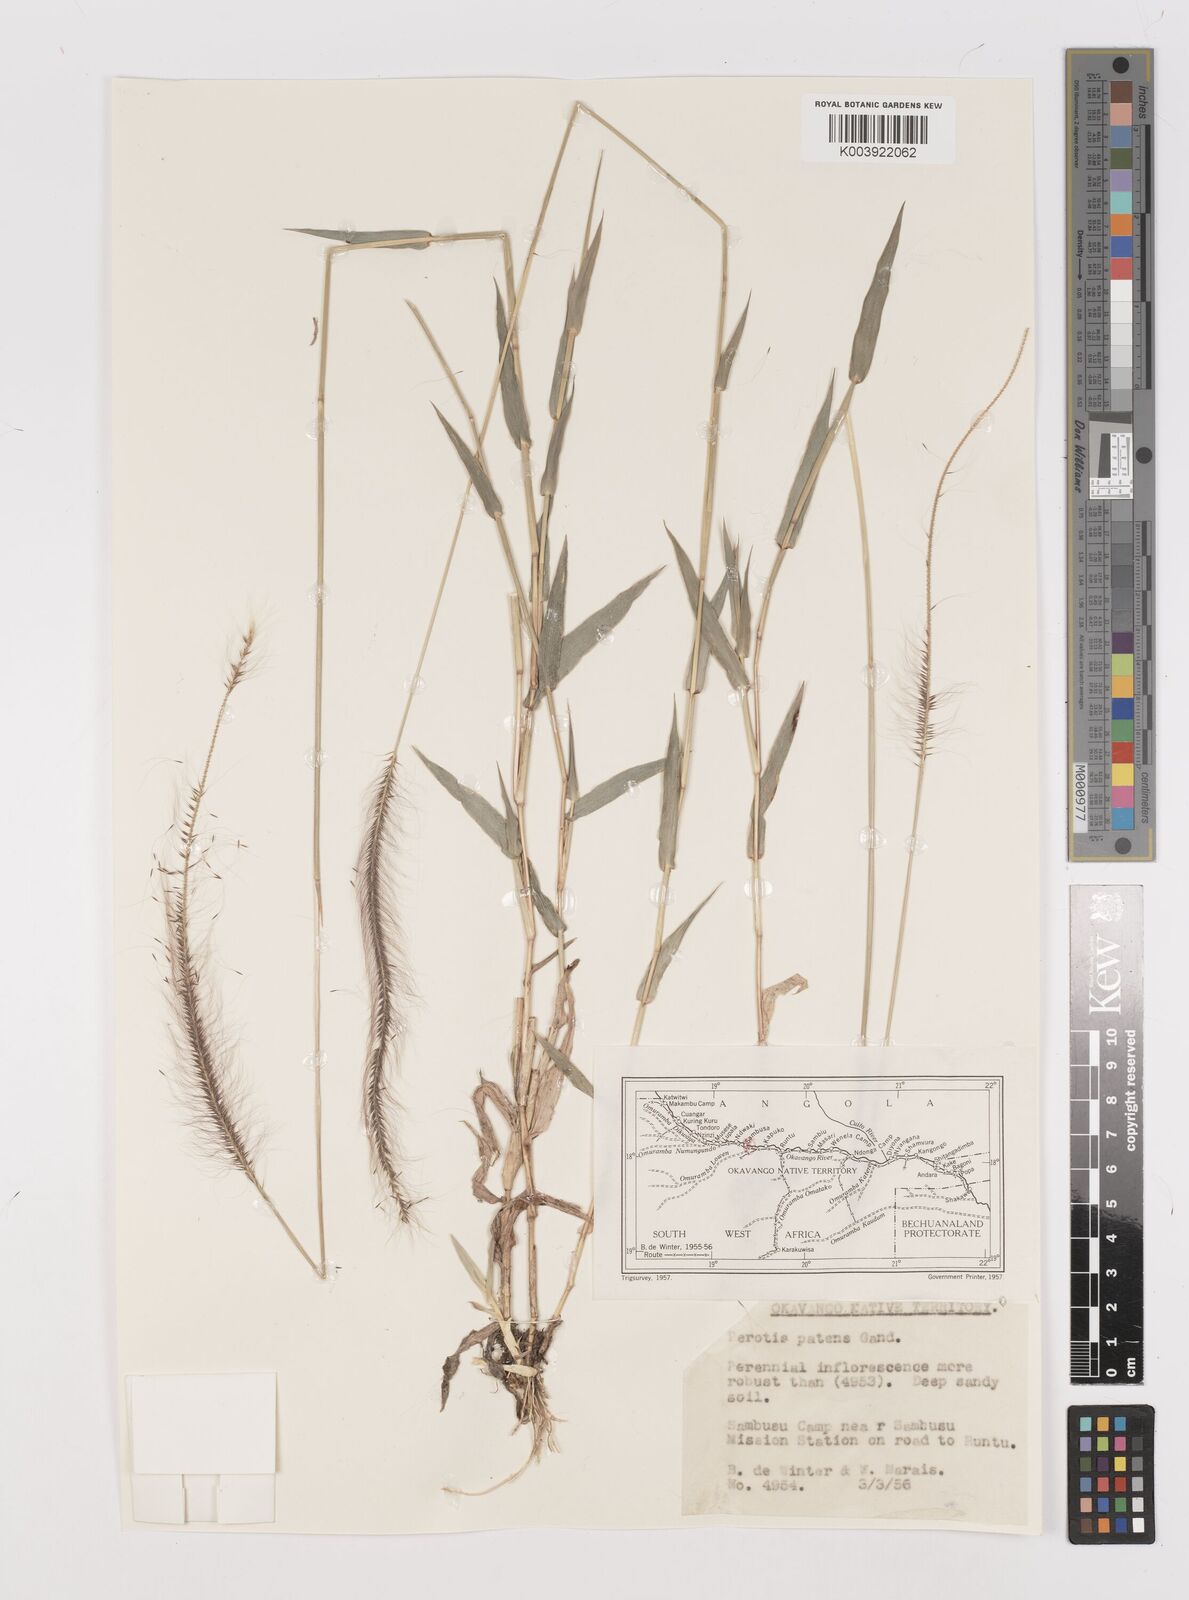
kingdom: Plantae
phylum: Tracheophyta
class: Liliopsida
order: Poales
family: Poaceae
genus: Perotis
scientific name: Perotis patens
